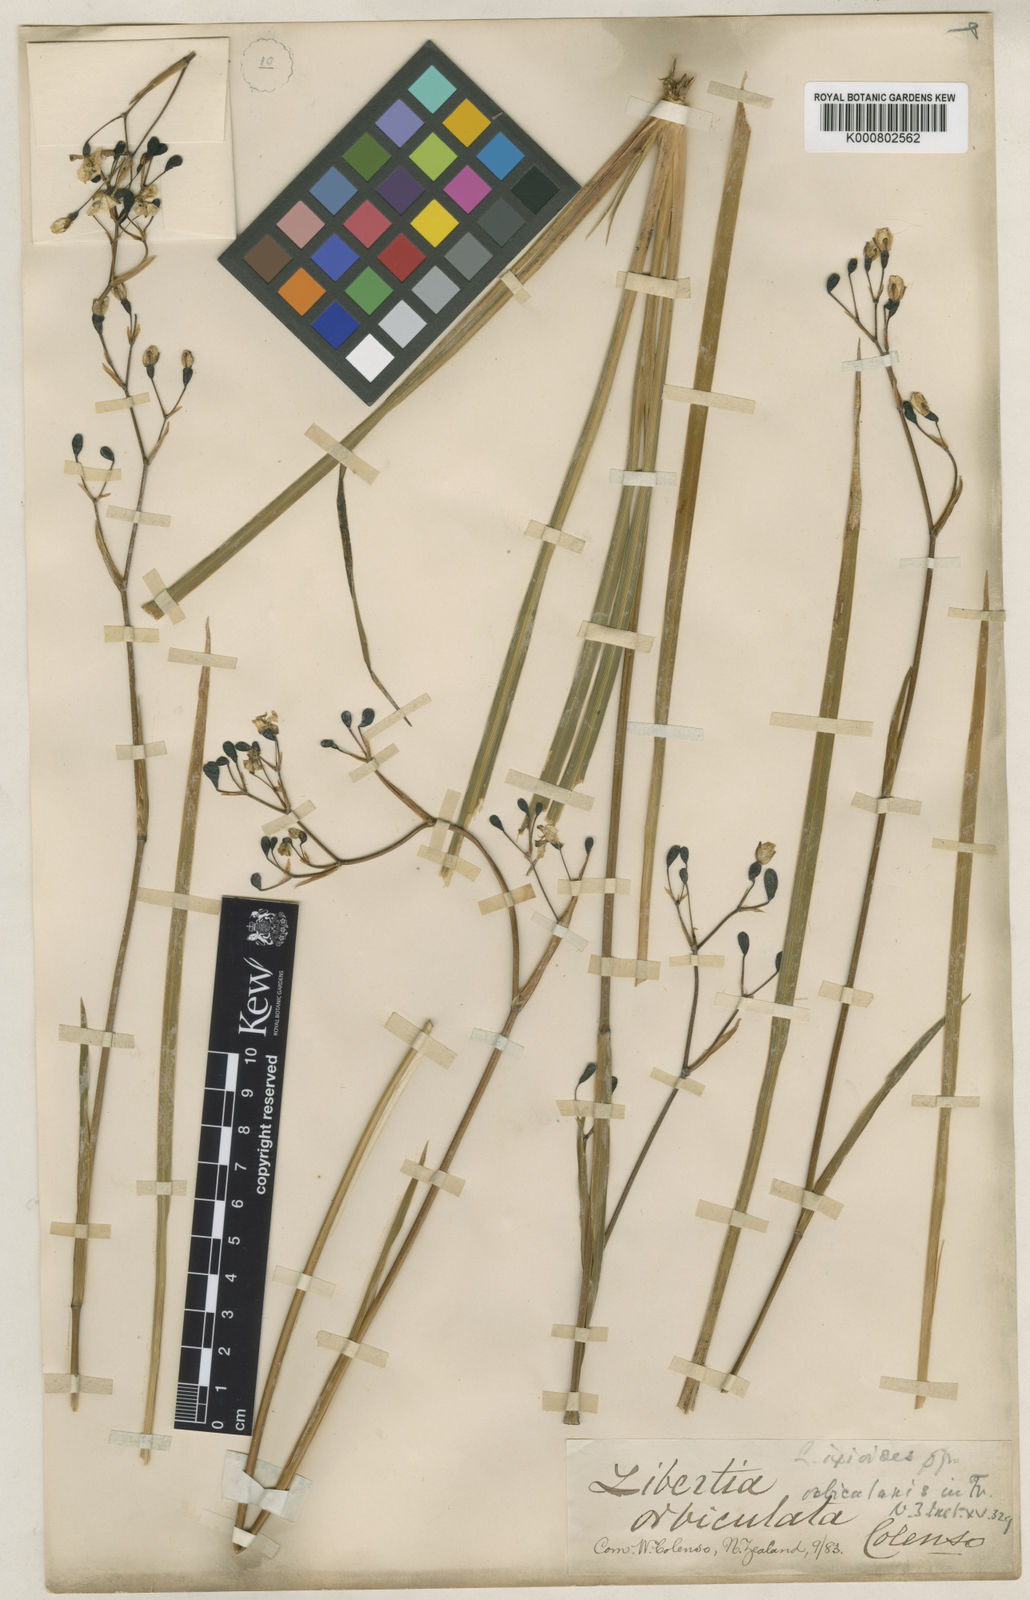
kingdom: Plantae
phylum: Tracheophyta
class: Liliopsida
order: Asparagales
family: Iridaceae
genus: Libertia
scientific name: Libertia ixioides
